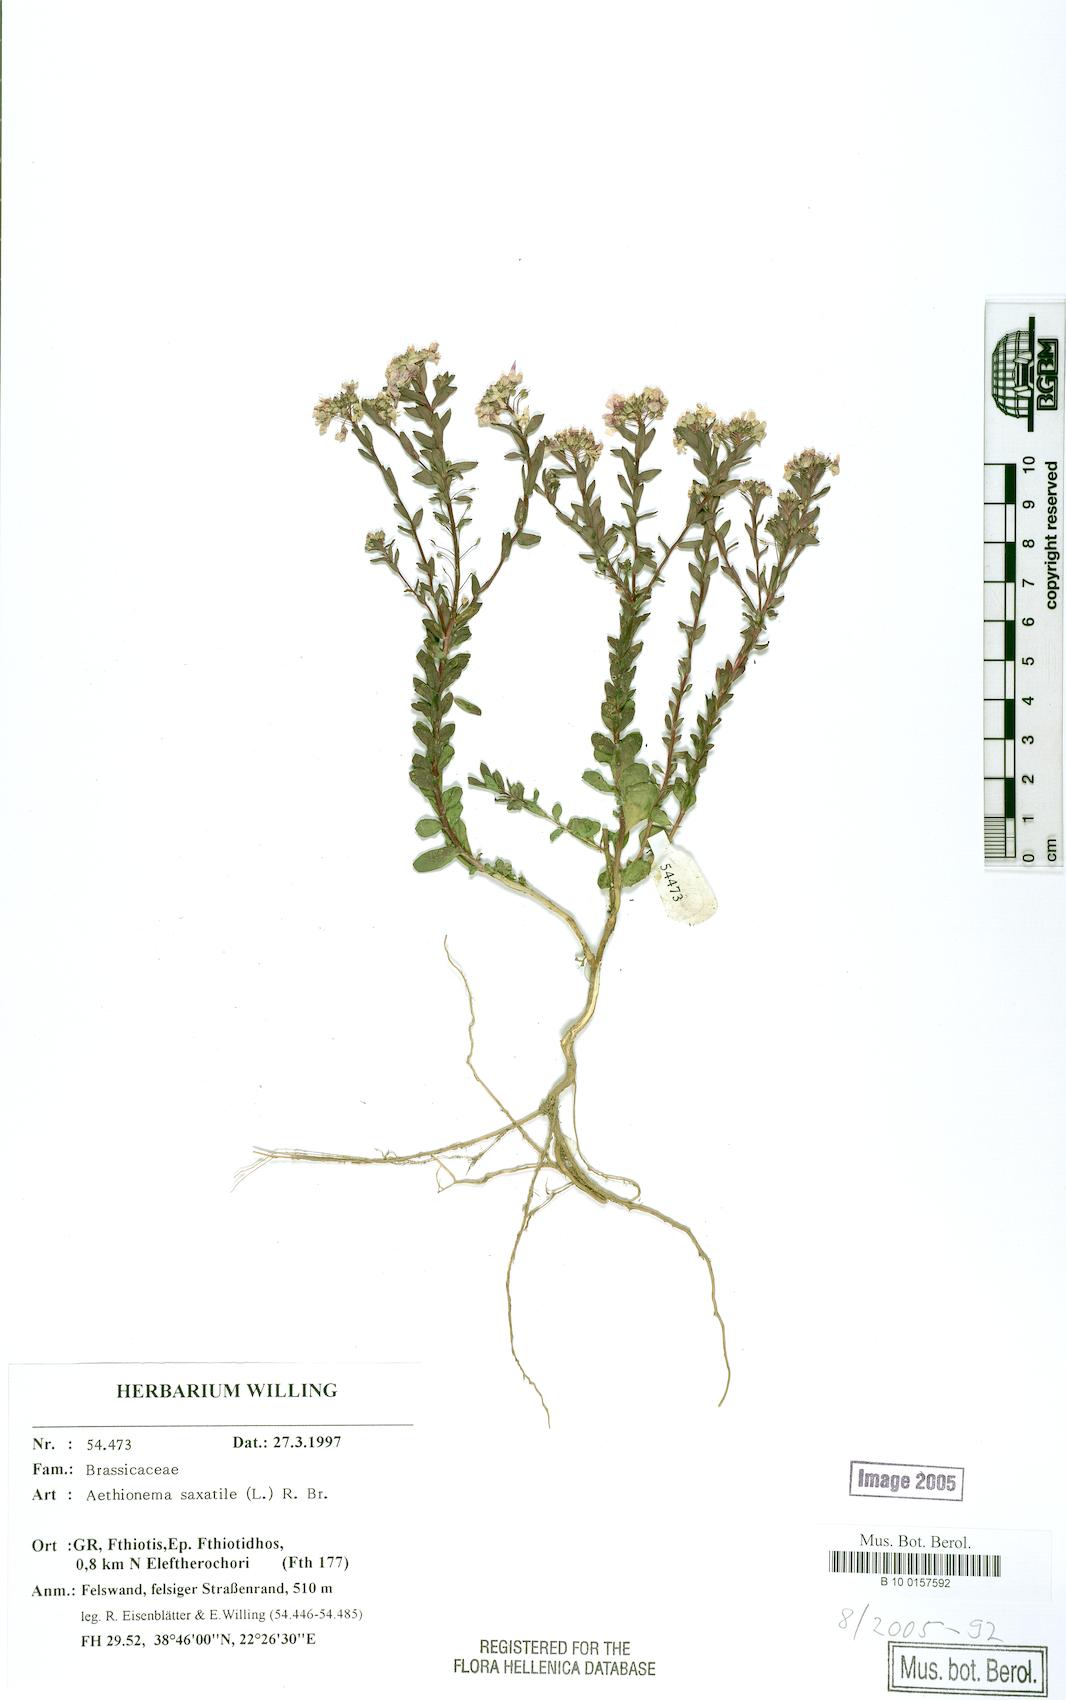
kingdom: Plantae
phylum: Tracheophyta
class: Magnoliopsida
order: Brassicales
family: Brassicaceae
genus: Aethionema
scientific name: Aethionema saxatile
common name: Burnt candytuft
